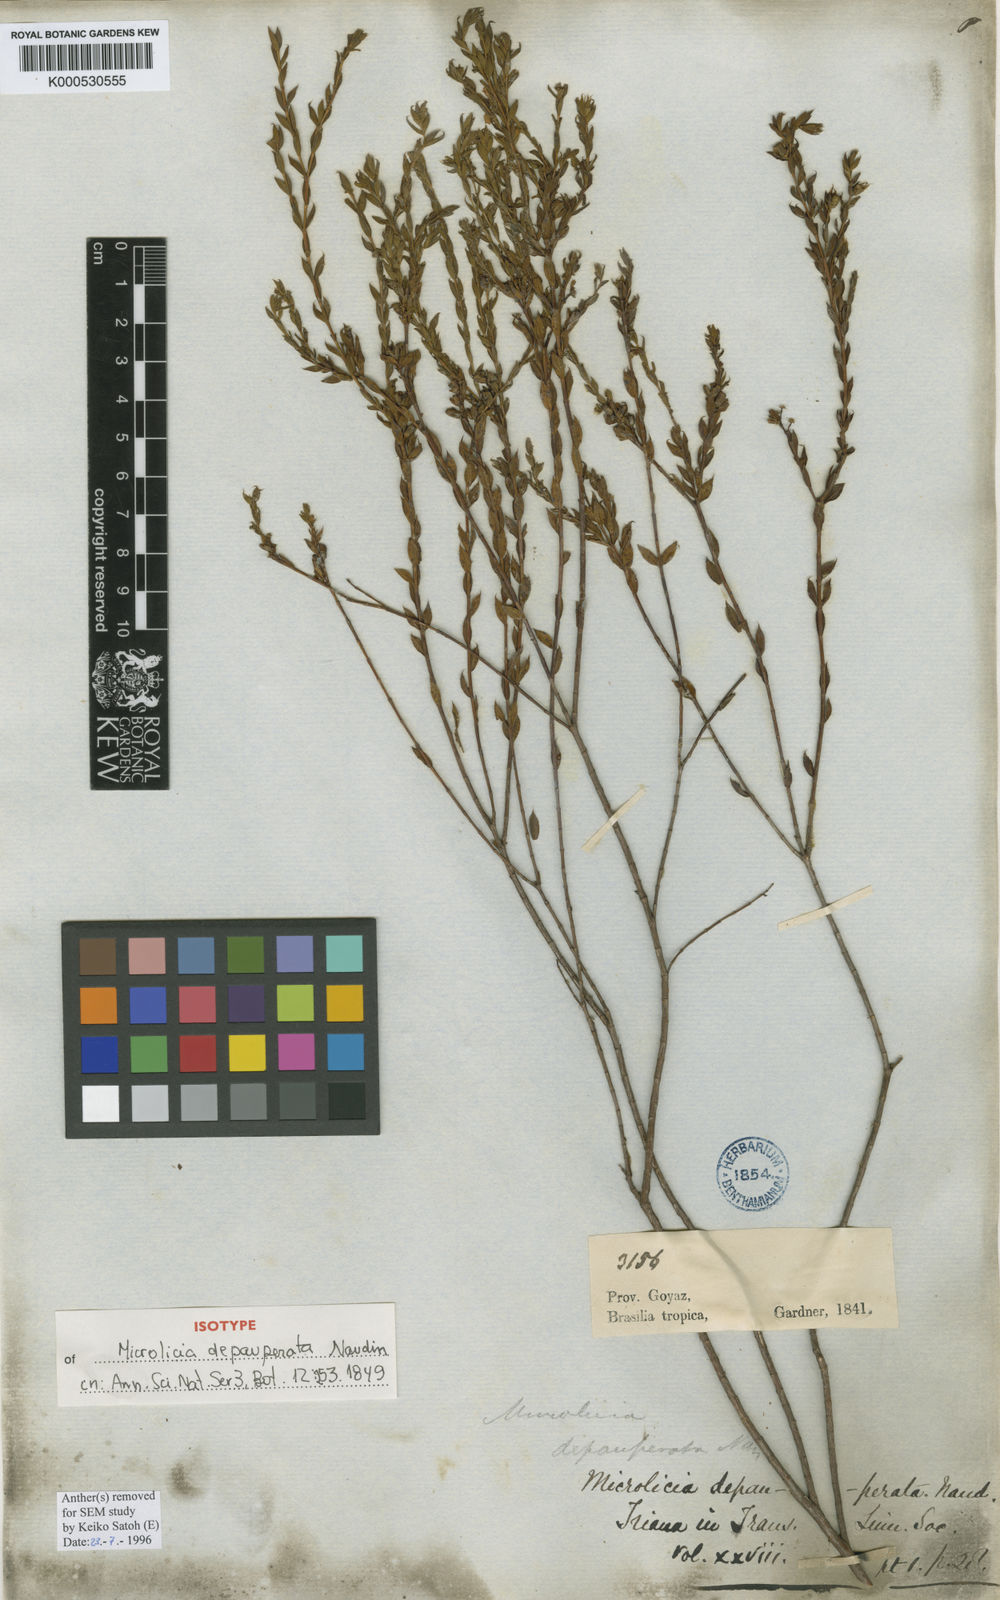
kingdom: Plantae
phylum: Tracheophyta
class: Magnoliopsida
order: Myrtales
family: Melastomataceae
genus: Microlicia
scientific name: Microlicia insignis
